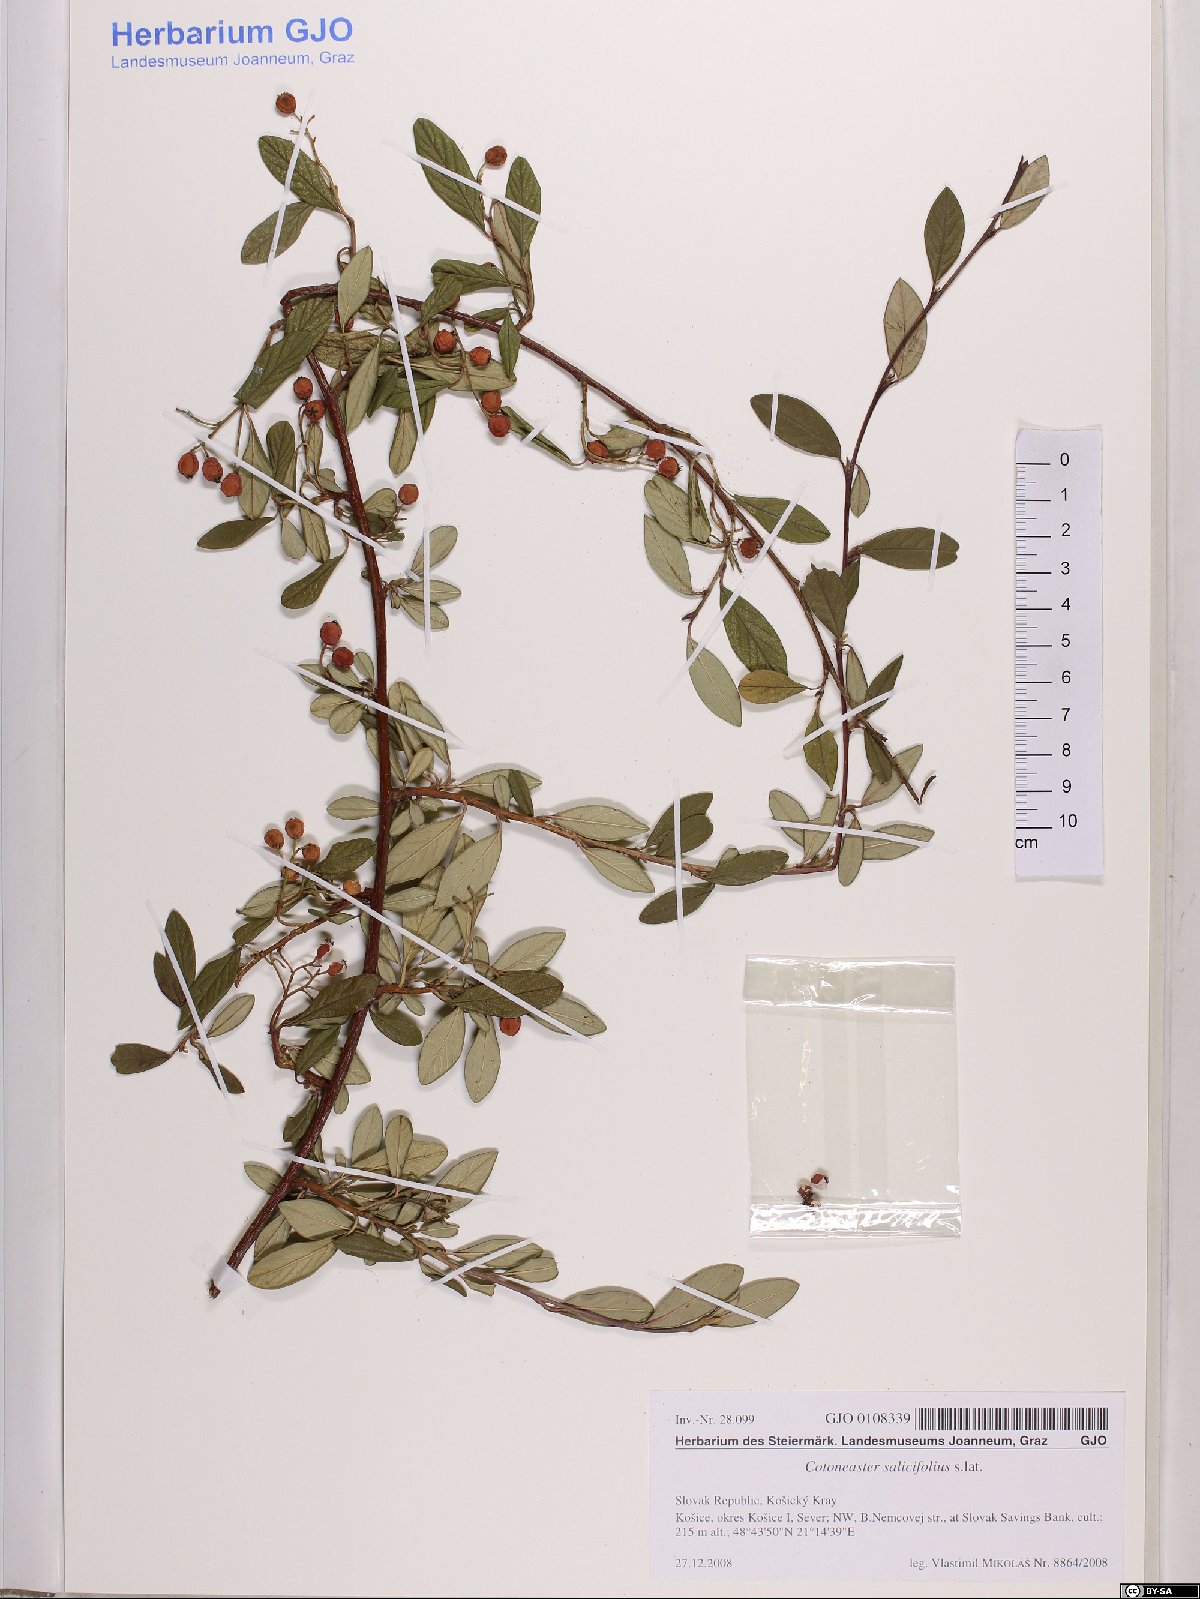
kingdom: Plantae
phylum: Tracheophyta
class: Magnoliopsida
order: Rosales
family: Rosaceae
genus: Cotoneaster
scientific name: Cotoneaster salicifolius
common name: Willow-leaved cotoneaster
